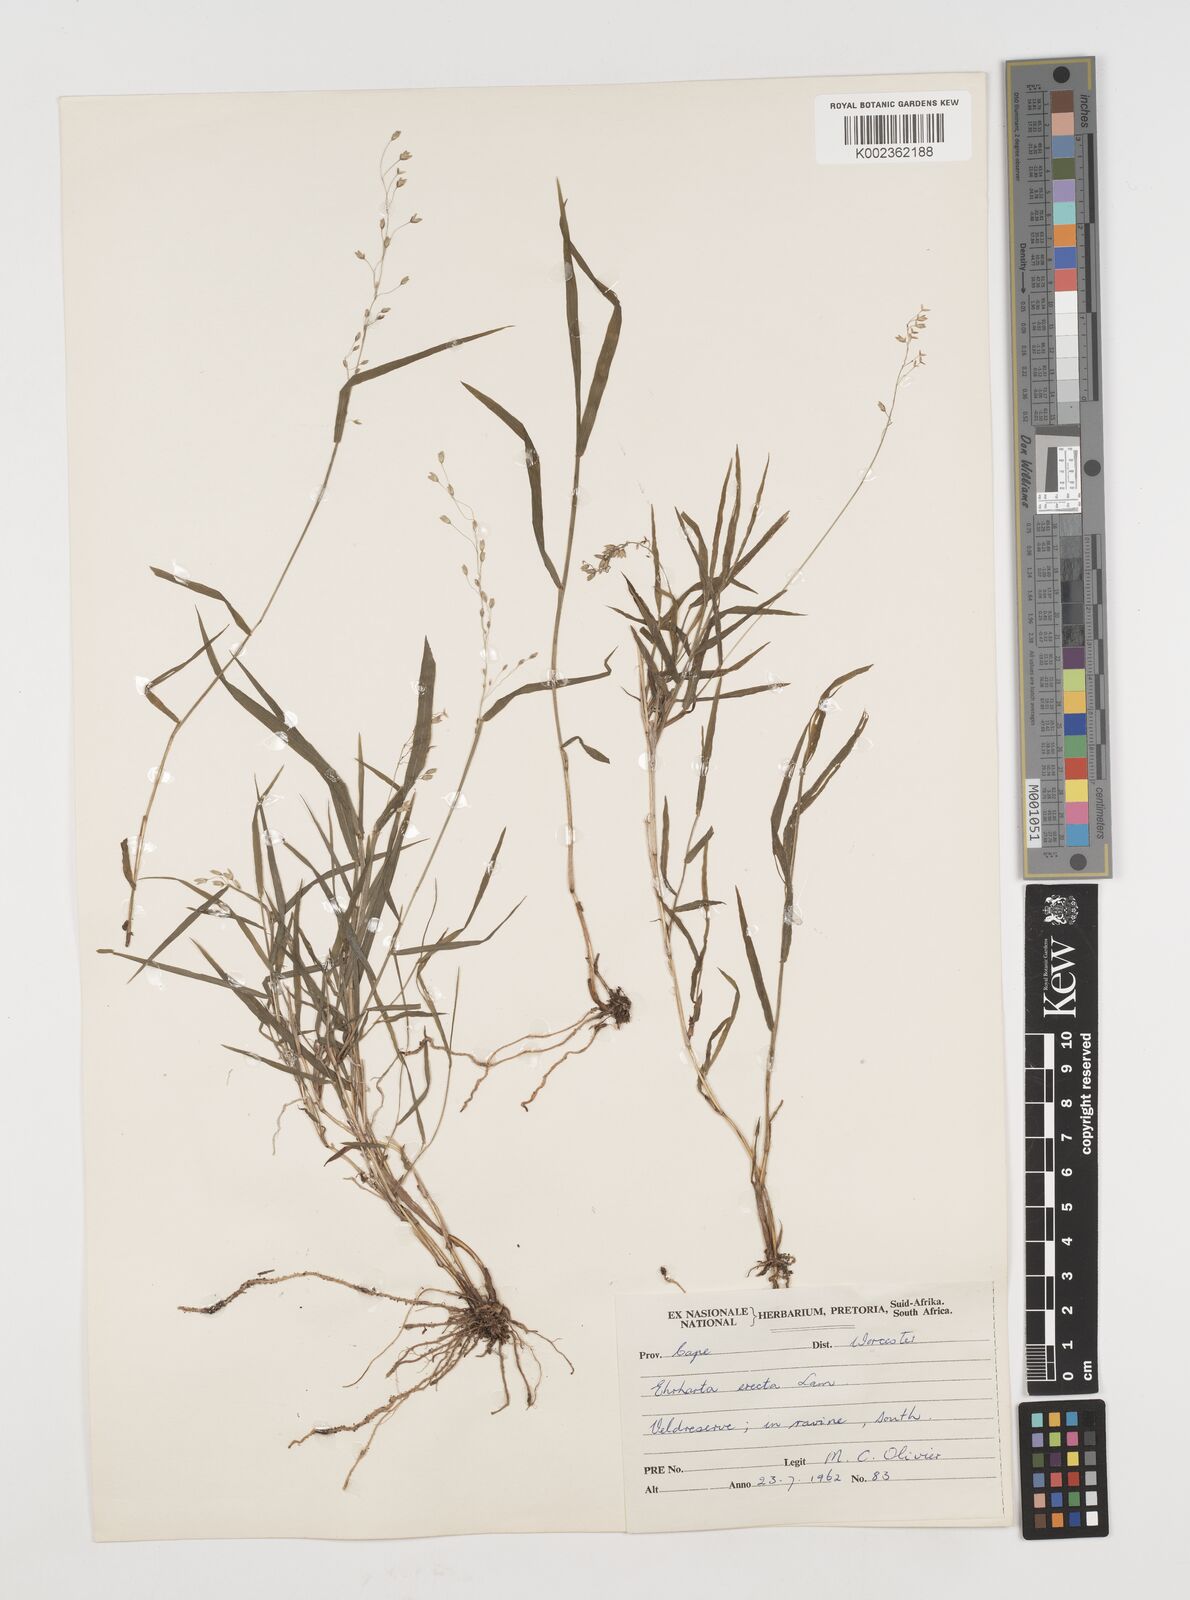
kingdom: Plantae
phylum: Tracheophyta
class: Liliopsida
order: Poales
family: Poaceae
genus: Ehrharta
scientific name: Ehrharta
